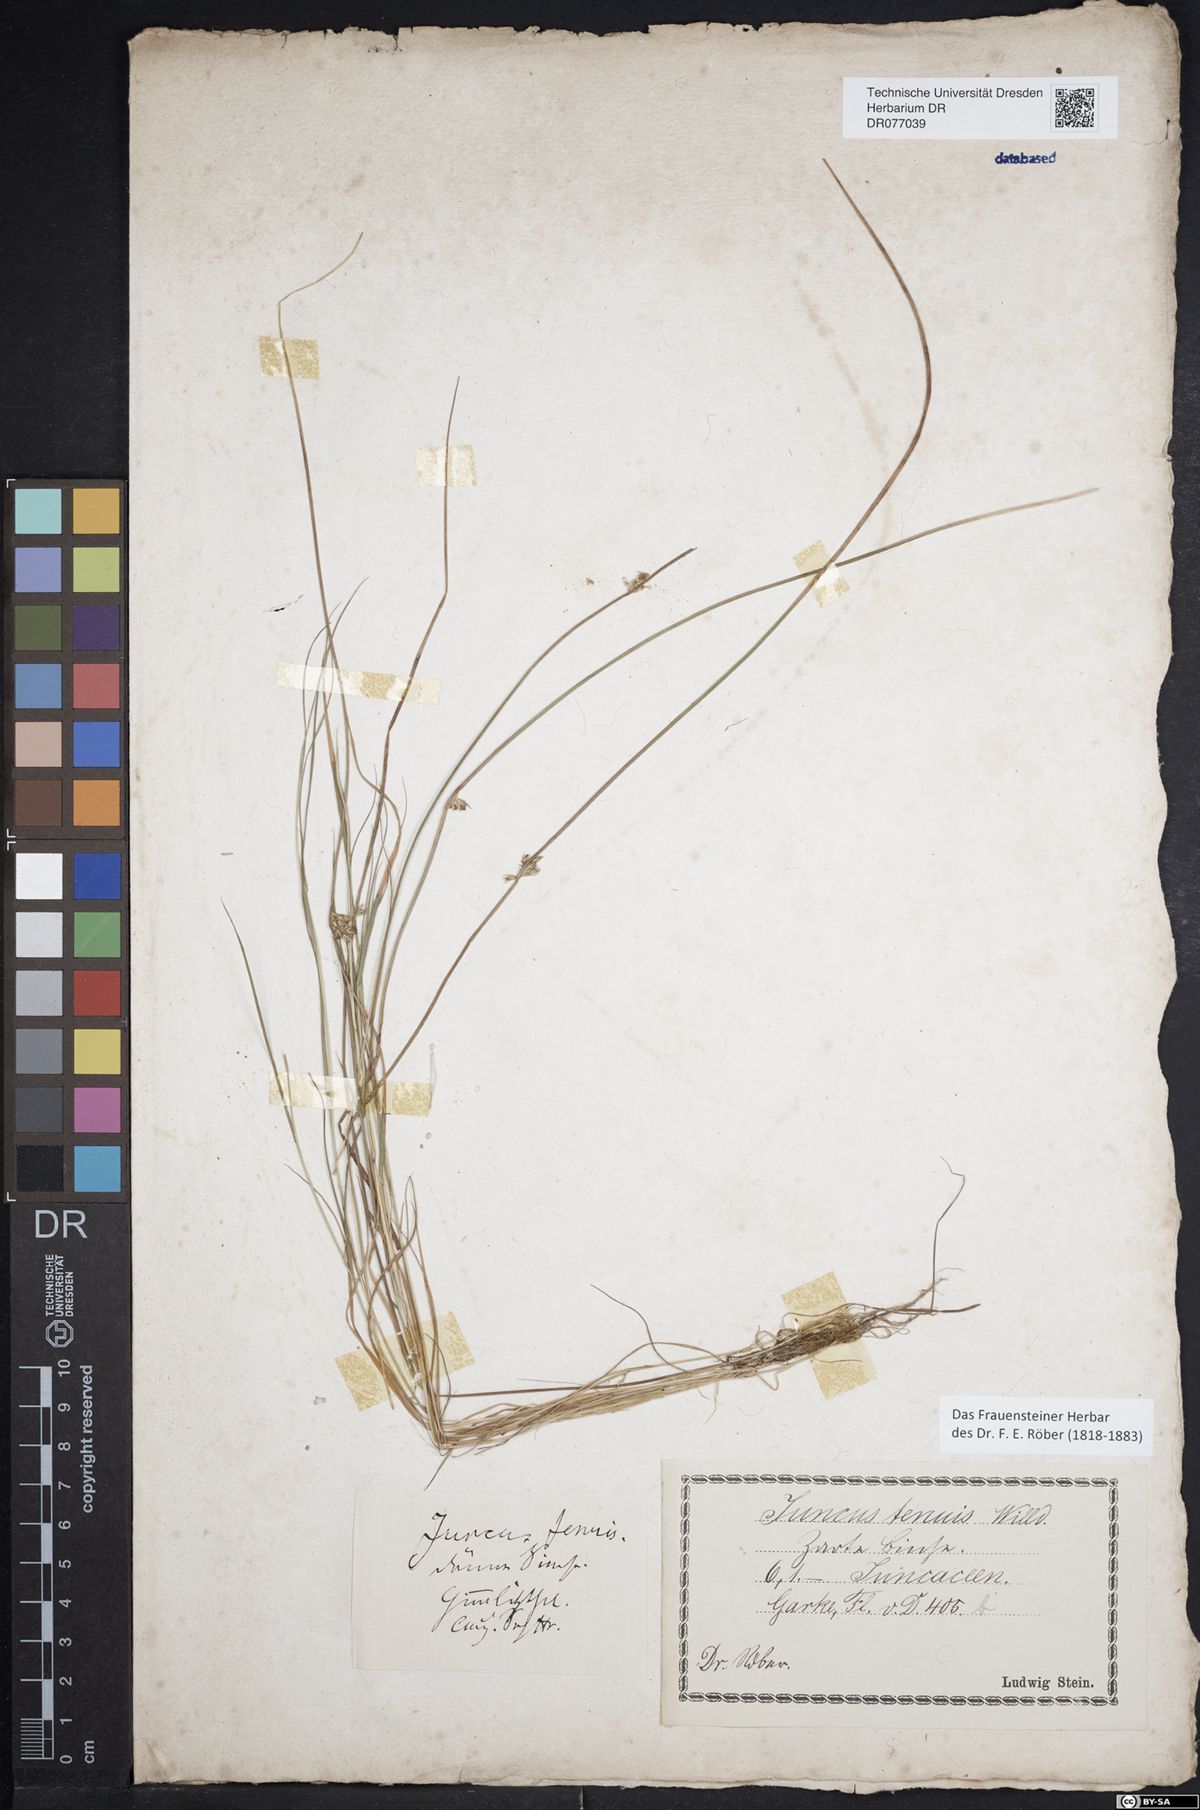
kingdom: Plantae
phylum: Tracheophyta
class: Liliopsida
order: Poales
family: Juncaceae
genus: Juncus
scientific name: Juncus filiformis
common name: Thread rush
